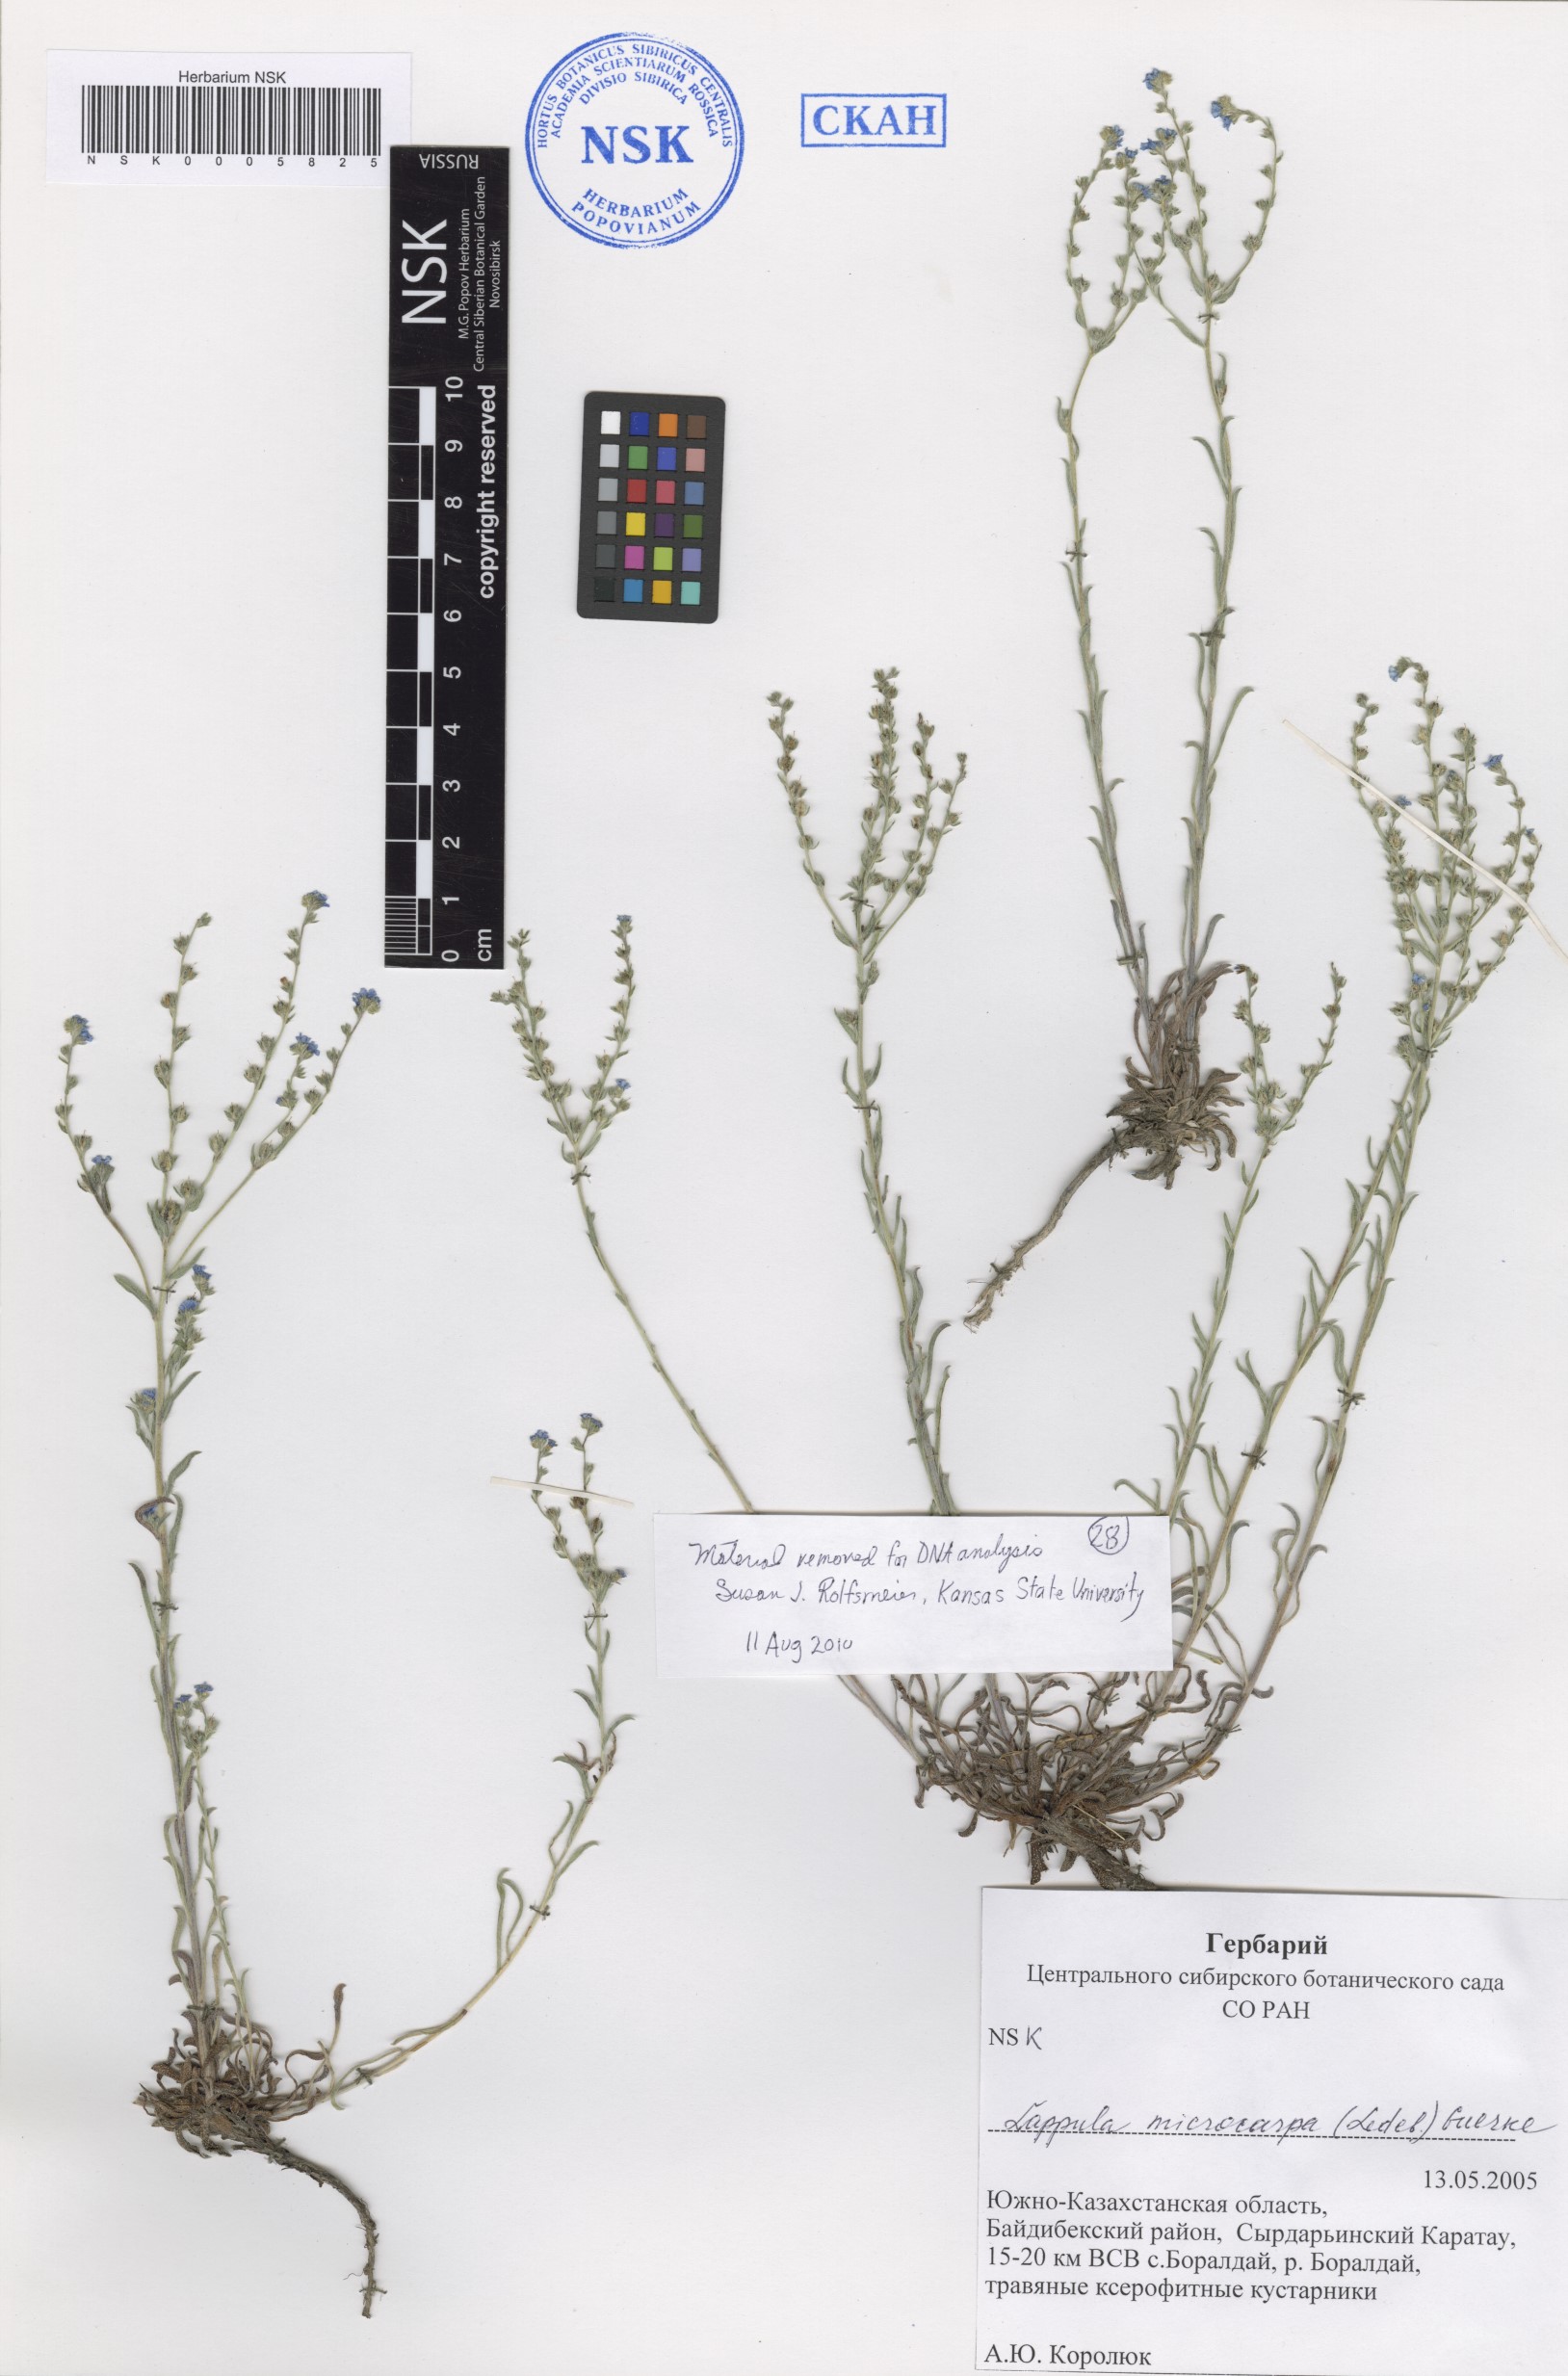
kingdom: Plantae
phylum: Tracheophyta
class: Magnoliopsida
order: Boraginales
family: Boraginaceae
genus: Lappula
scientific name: Lappula microcarpa
